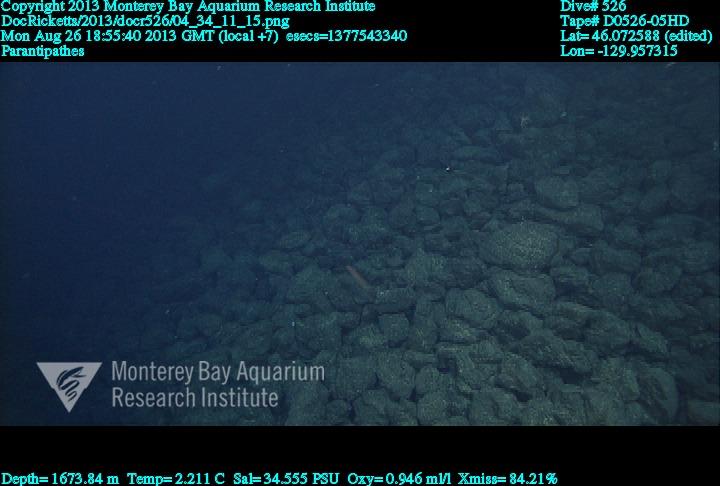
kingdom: Animalia
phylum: Cnidaria
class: Anthozoa
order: Antipatharia
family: Schizopathidae
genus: Parantipathes
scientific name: Parantipathes
